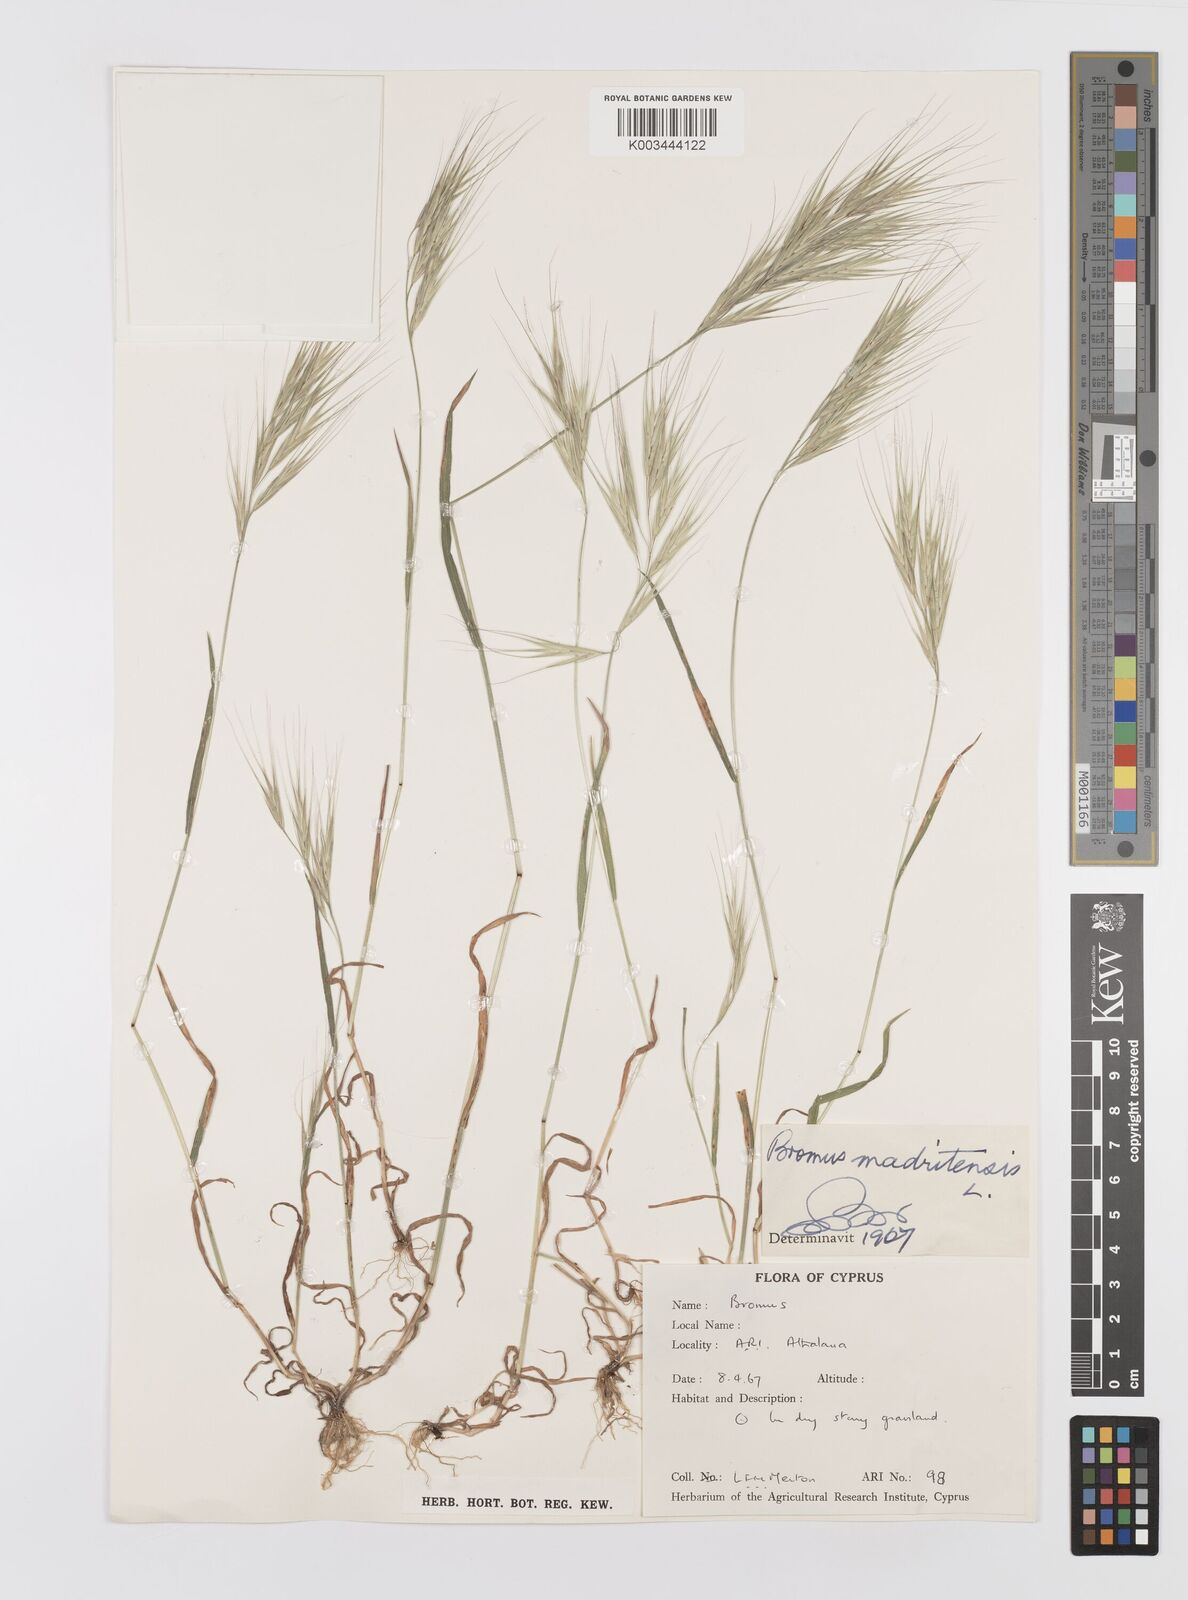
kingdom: Plantae
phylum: Tracheophyta
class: Liliopsida
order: Poales
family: Poaceae
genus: Bromus
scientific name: Bromus madritensis
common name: Compact brome
